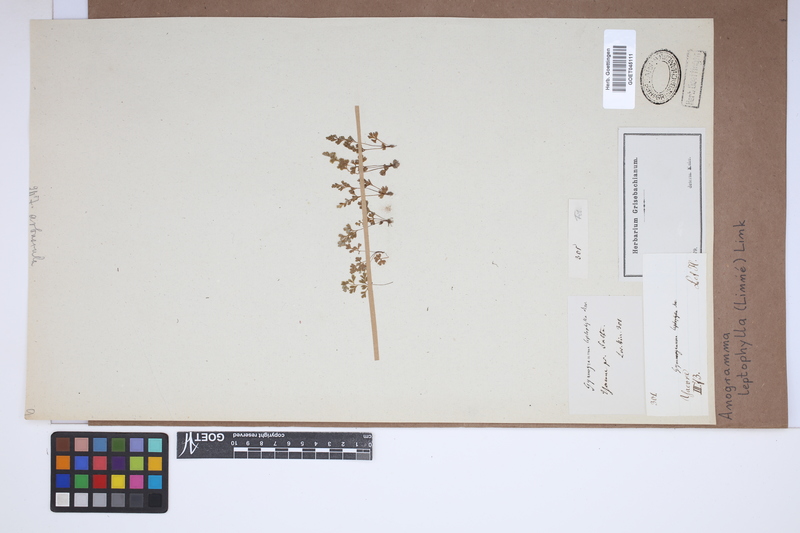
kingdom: Plantae
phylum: Tracheophyta
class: Polypodiopsida
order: Polypodiales
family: Pteridaceae
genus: Anogramma
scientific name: Anogramma leptophylla
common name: Jersey fern
